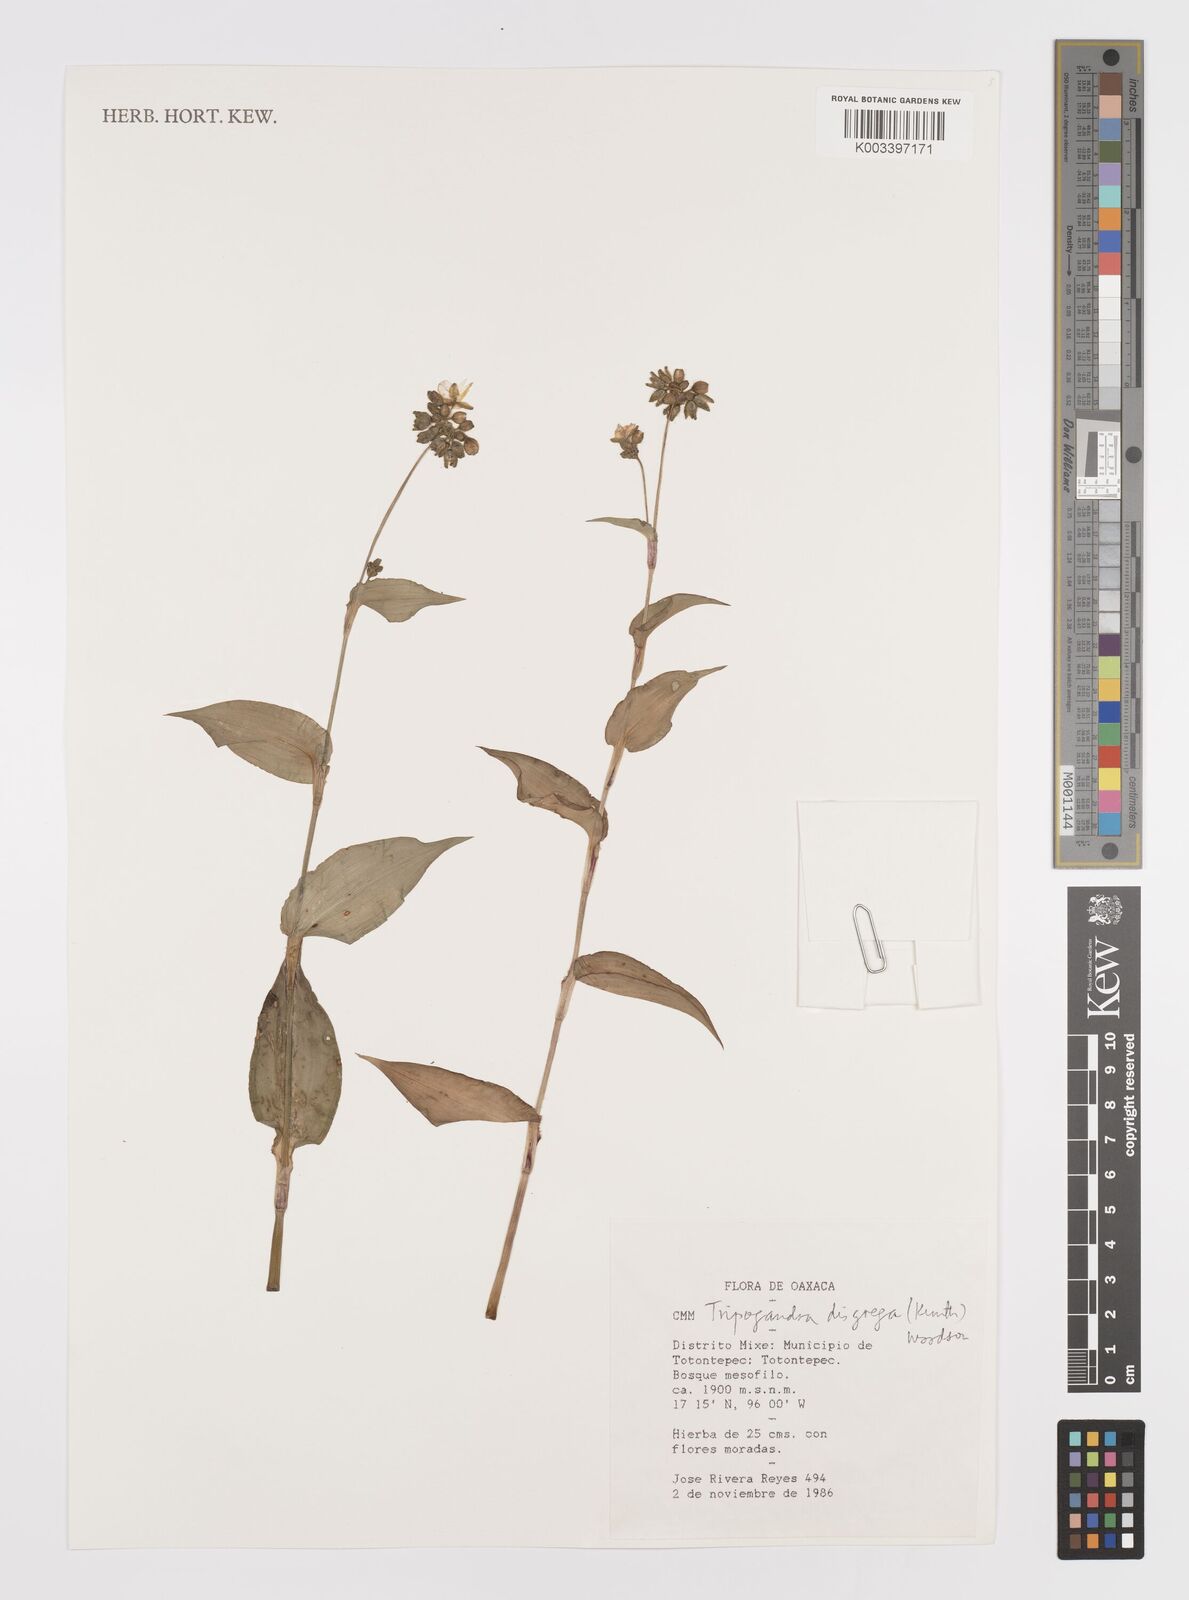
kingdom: Plantae
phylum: Tracheophyta
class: Liliopsida
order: Commelinales
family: Commelinaceae
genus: Callisia
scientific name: Callisia disgrega
